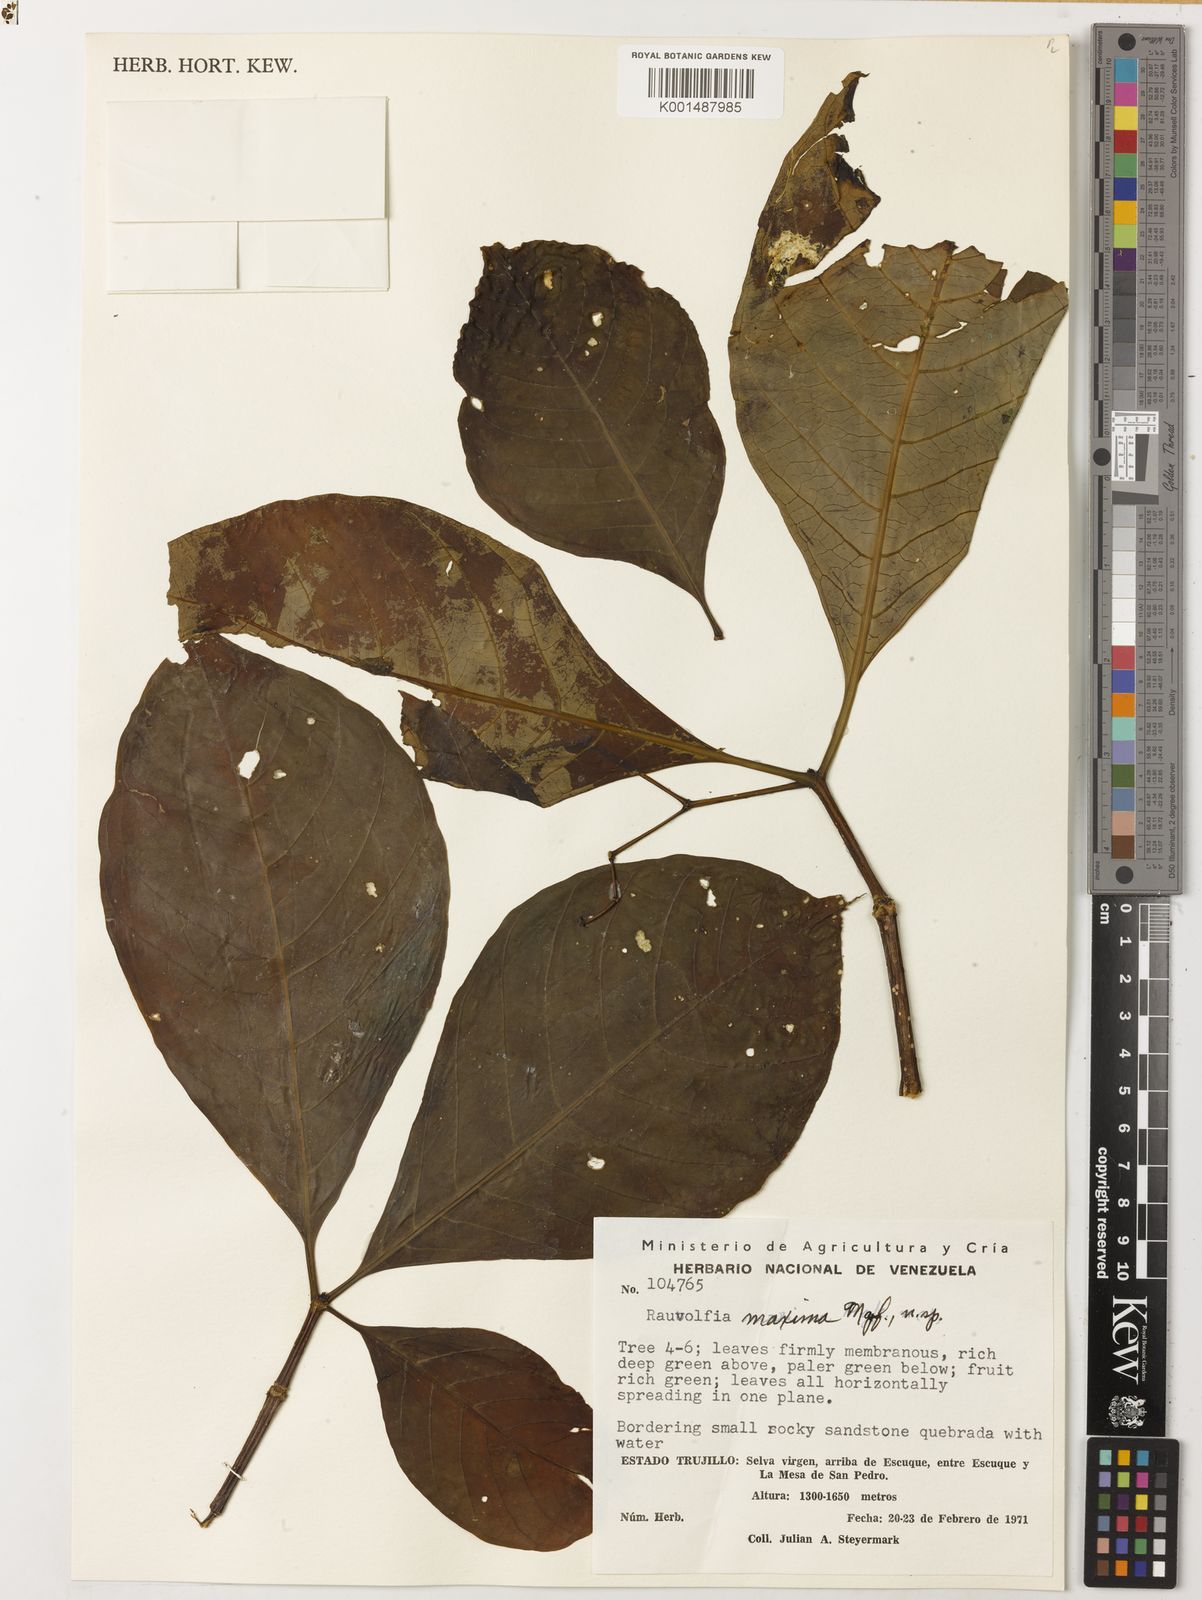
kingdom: Plantae
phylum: Tracheophyta
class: Magnoliopsida
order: Gentianales
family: Apocynaceae
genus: Rauvolfia
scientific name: Rauvolfia maxima
